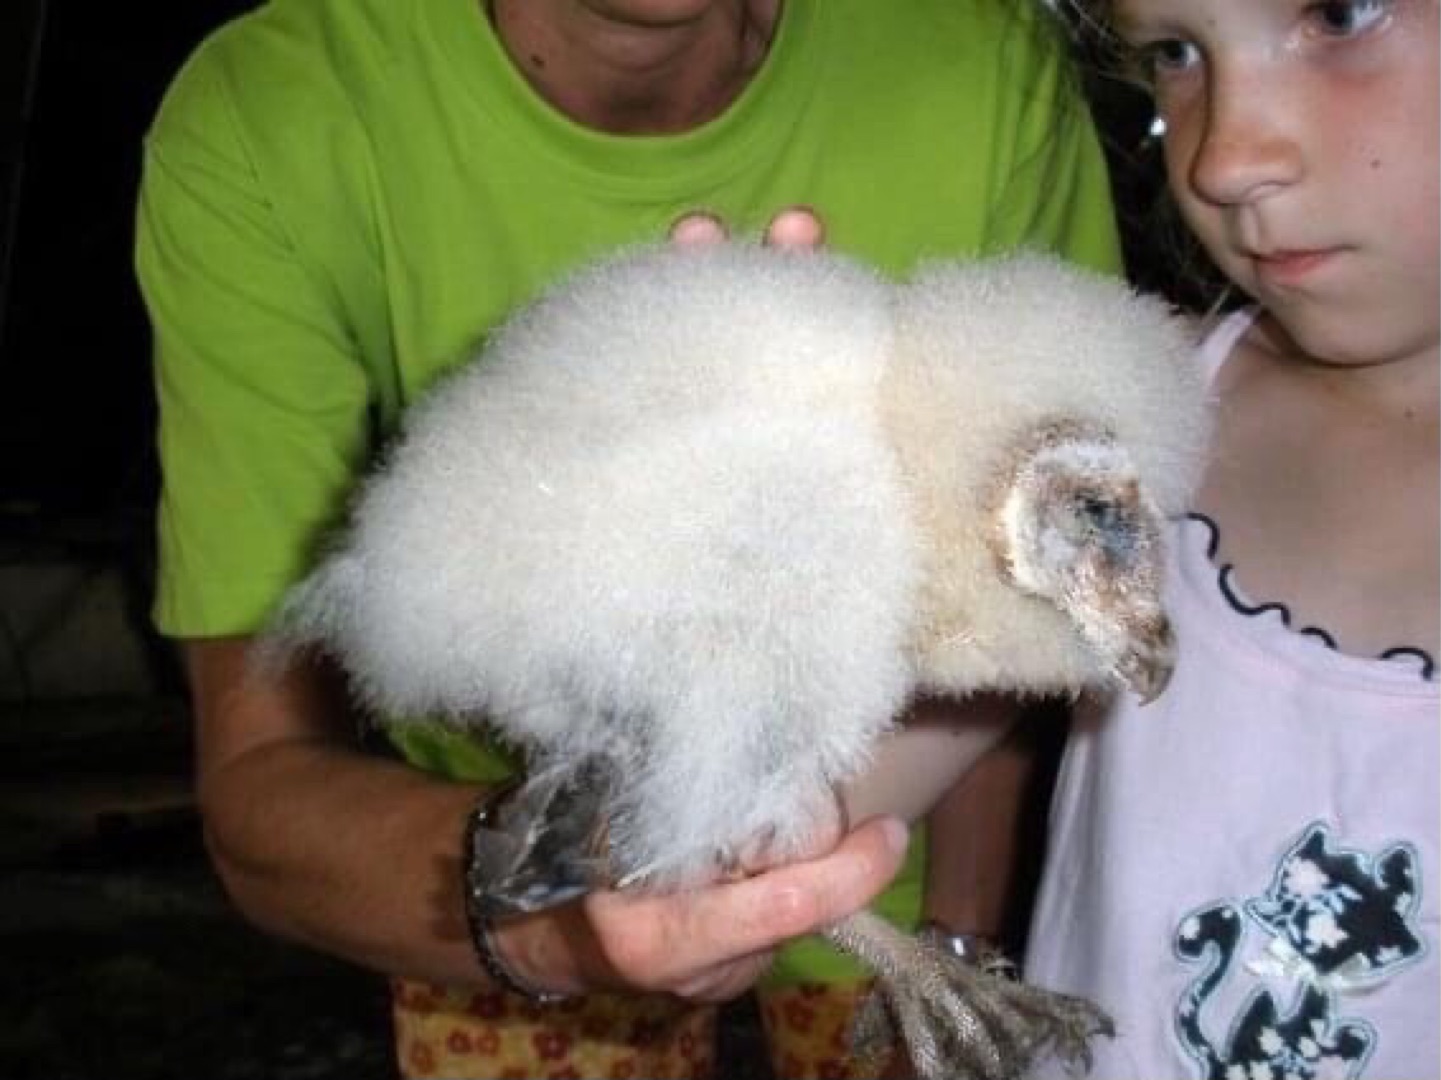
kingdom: Animalia
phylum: Chordata
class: Aves
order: Strigiformes
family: Tytonidae
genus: Tyto
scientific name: Tyto alba
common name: Slørugle
